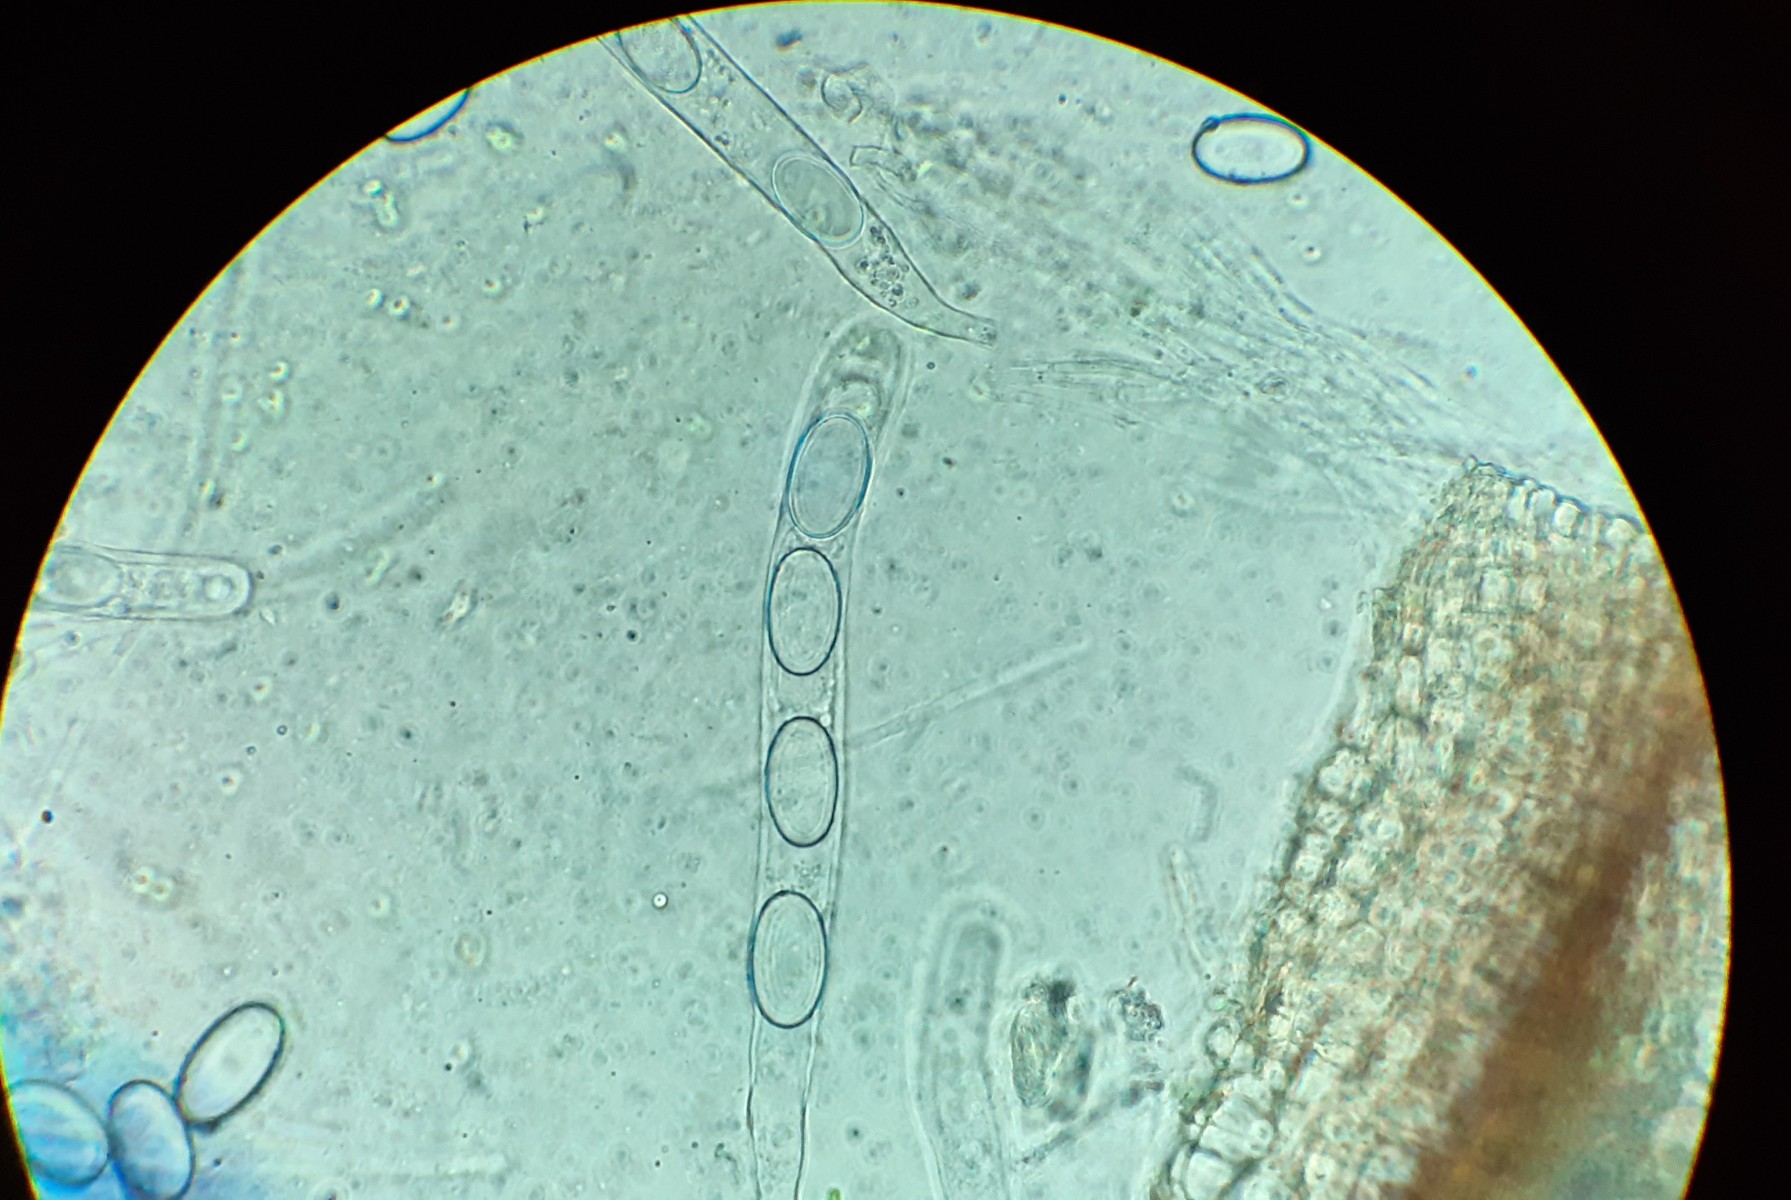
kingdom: Fungi
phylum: Ascomycota
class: Pezizomycetes
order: Pezizales
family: Pyronemataceae
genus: Trichophaeopsis
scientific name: Trichophaeopsis tetraspora
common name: møg-børstebæger
